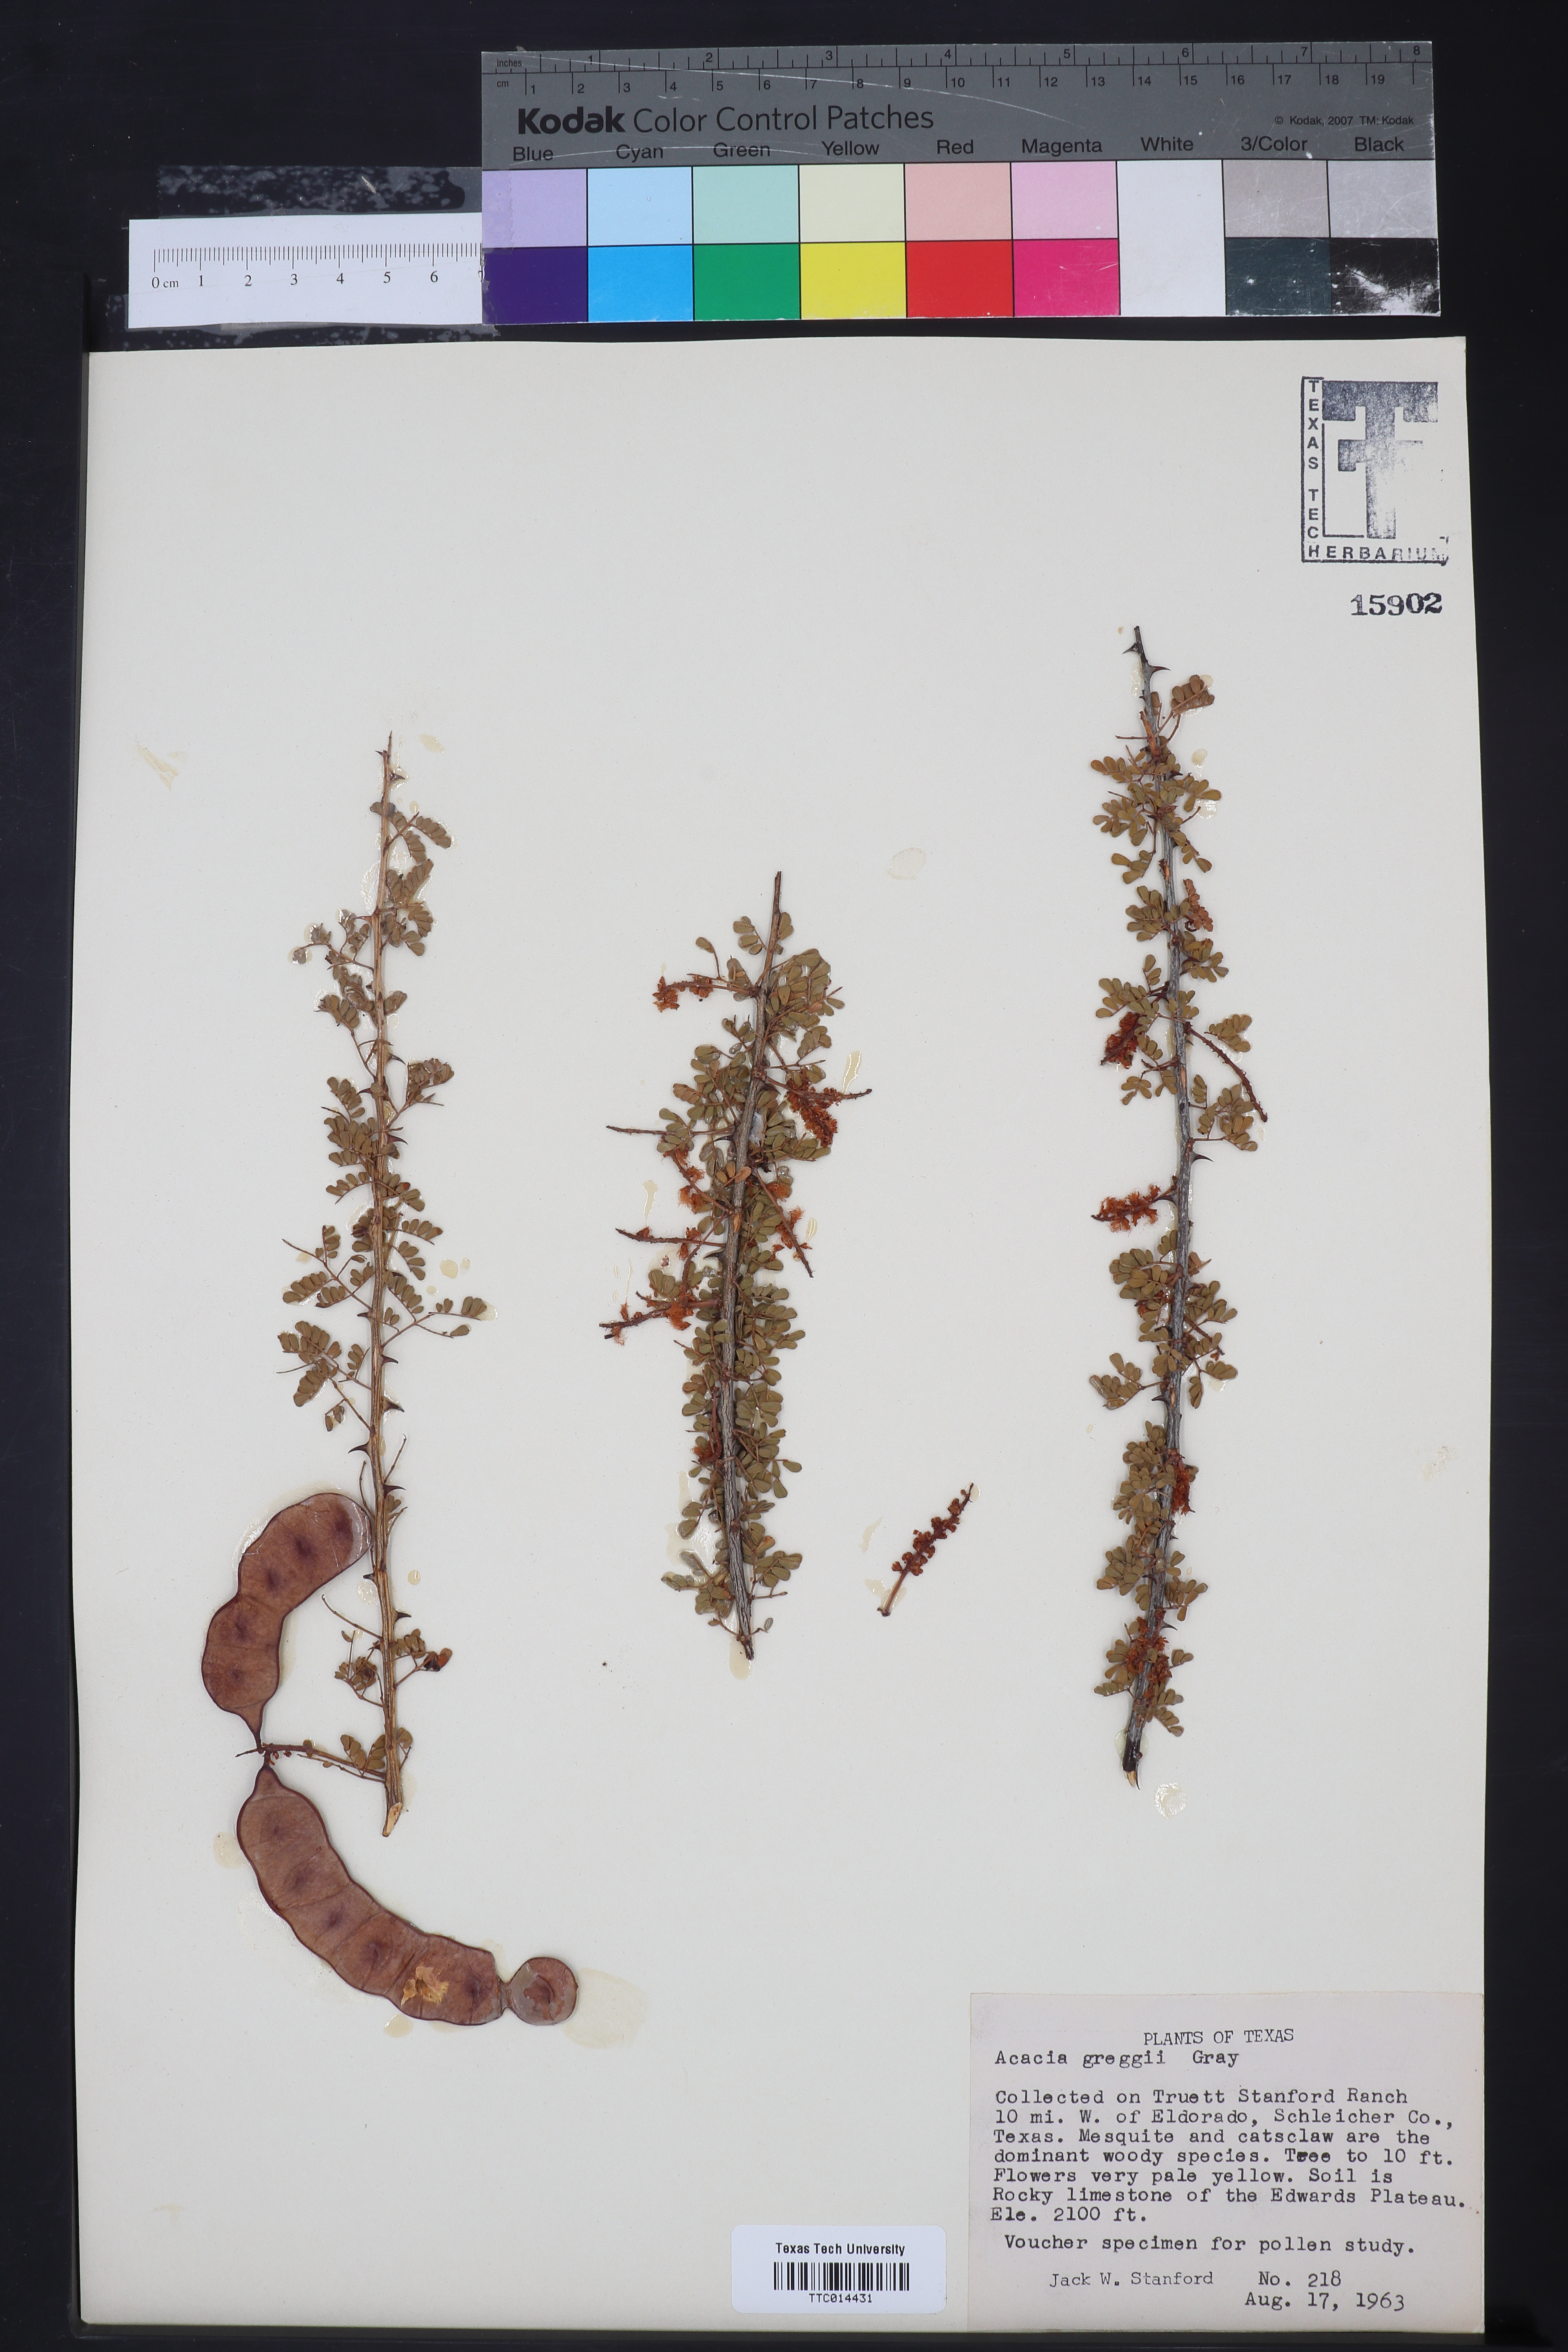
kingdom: Plantae
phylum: Tracheophyta
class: Magnoliopsida
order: Fabales
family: Fabaceae
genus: Senegalia
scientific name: Senegalia greggii
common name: Texas-mimosa
